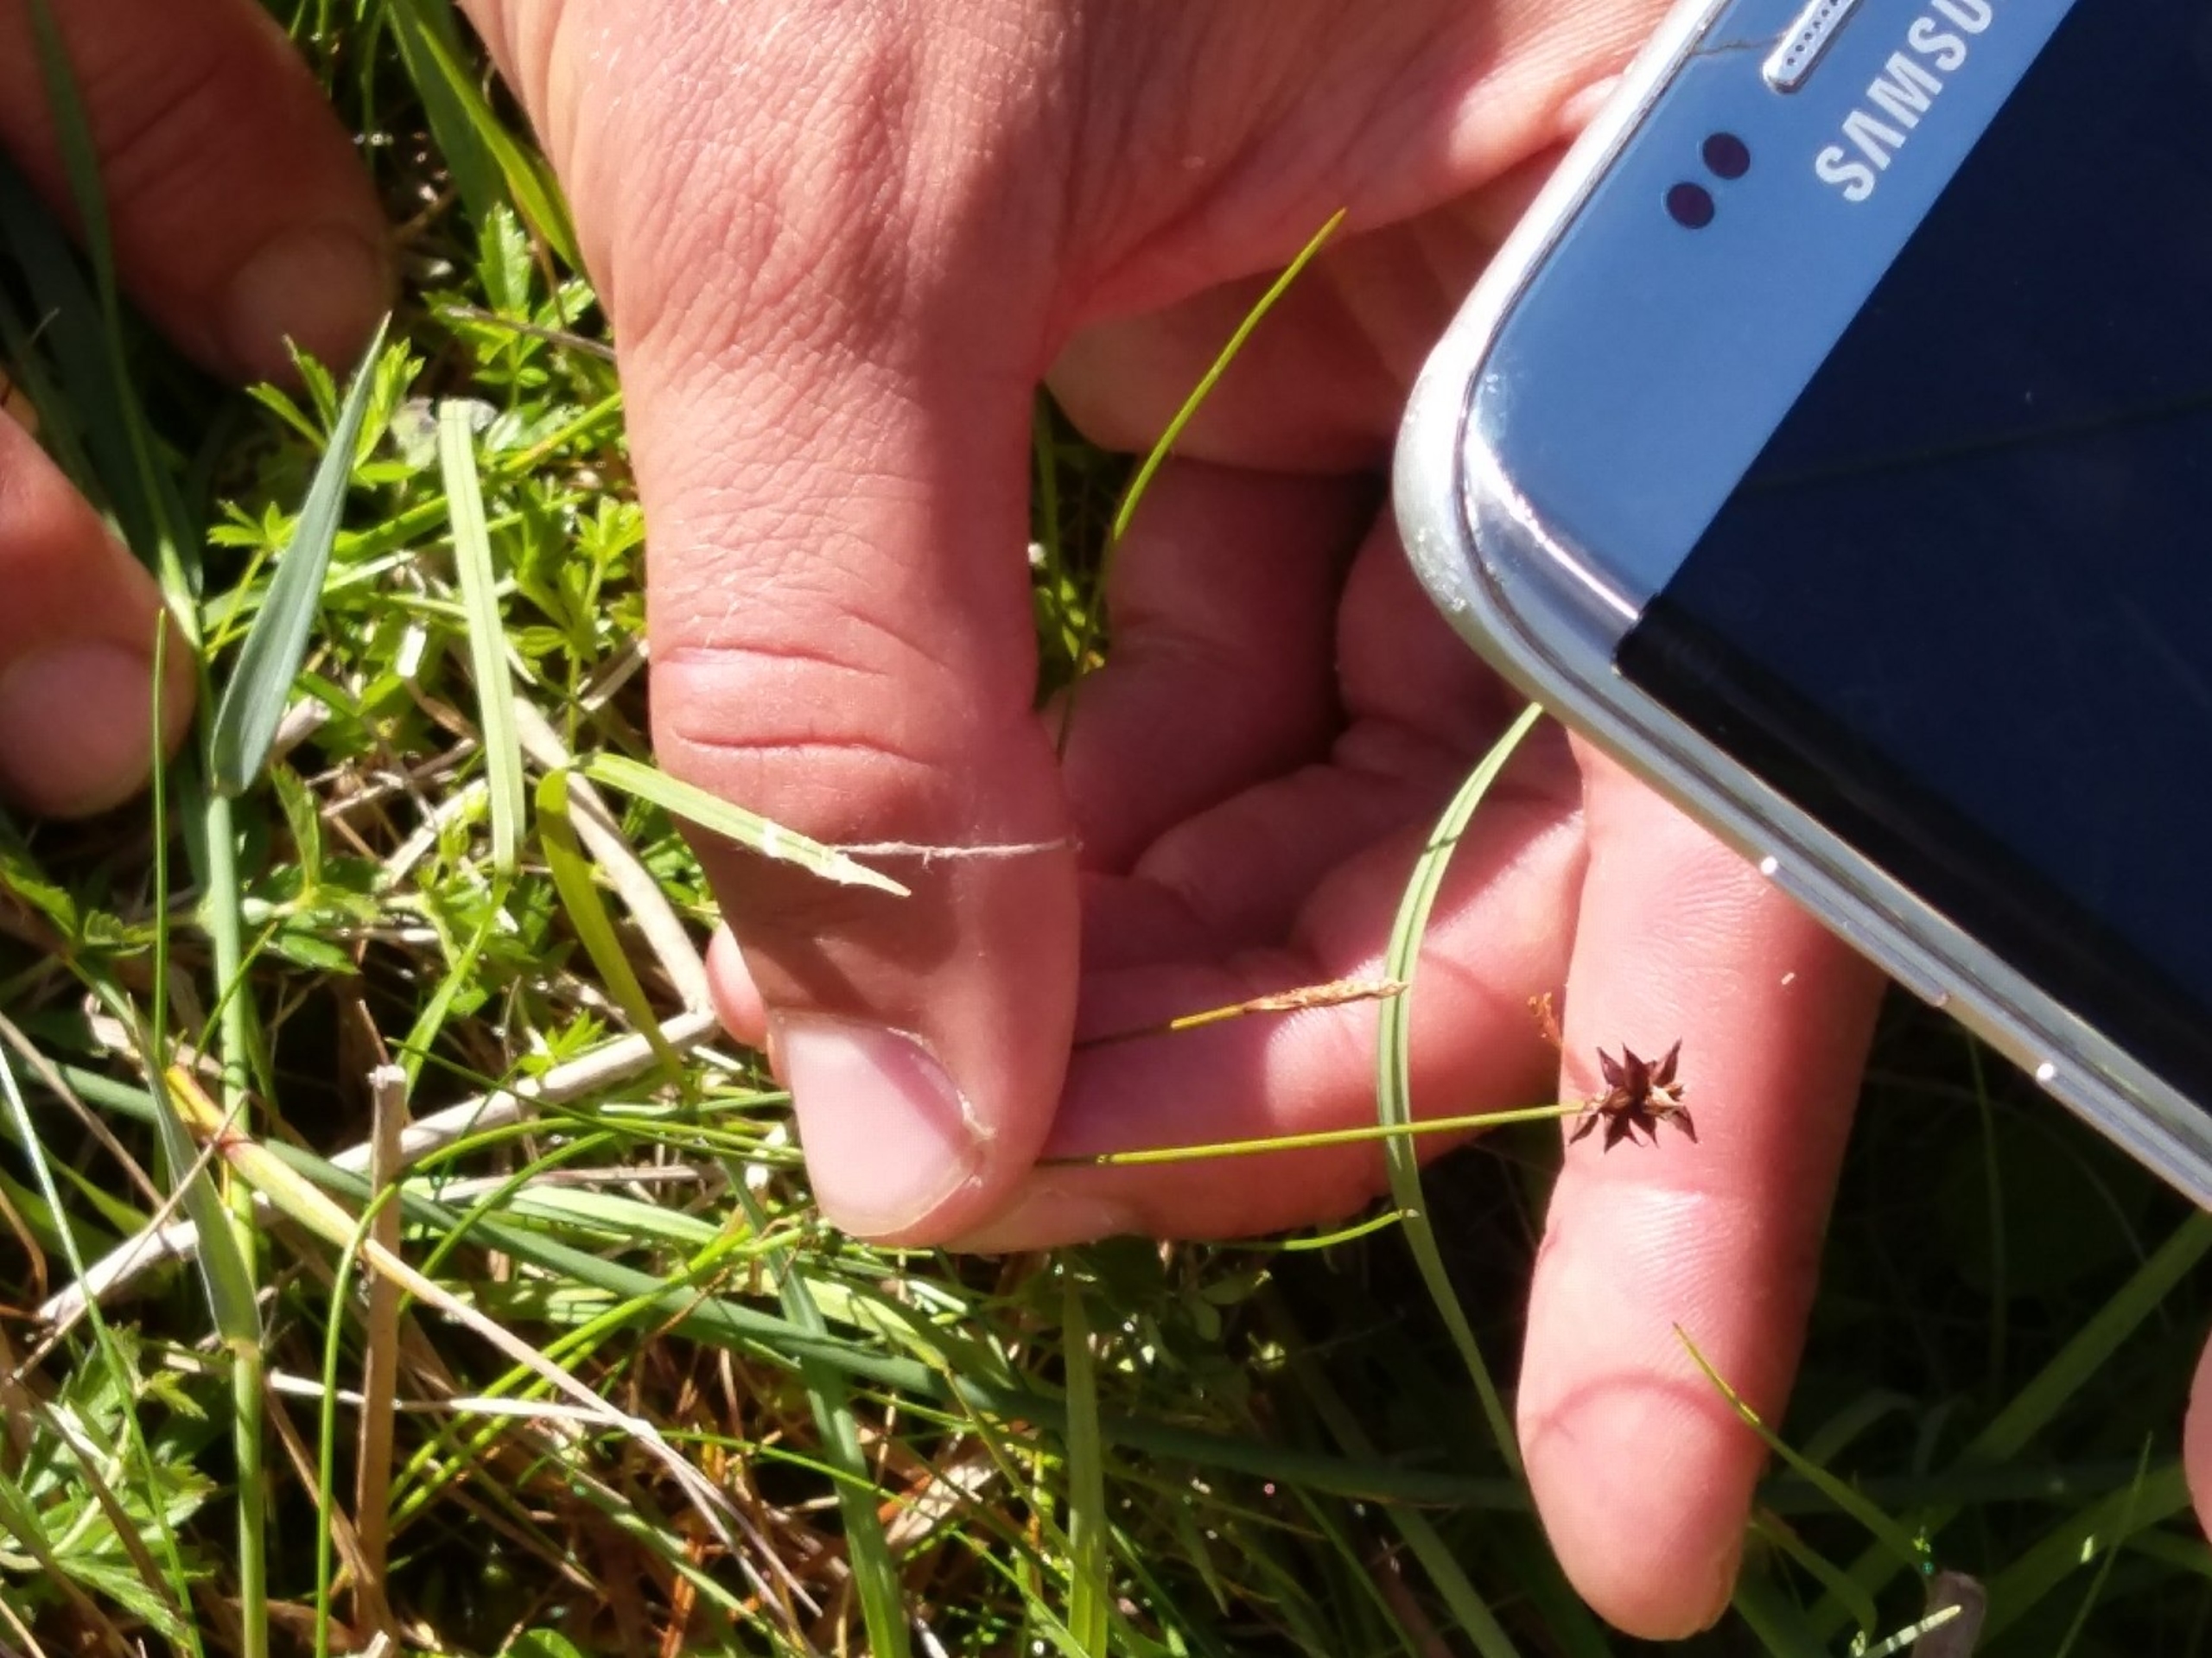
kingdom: Plantae
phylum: Tracheophyta
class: Liliopsida
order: Poales
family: Cyperaceae
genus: Carex
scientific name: Carex dioica
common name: Tvebo star
